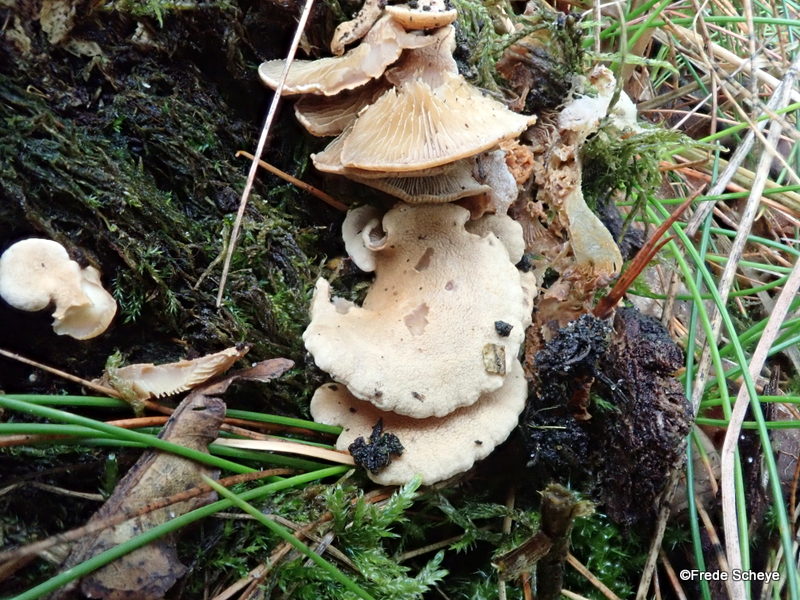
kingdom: Fungi
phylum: Basidiomycota
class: Agaricomycetes
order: Agaricales
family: Mycenaceae
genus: Panellus
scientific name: Panellus stipticus
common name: kliddet epaulethat
